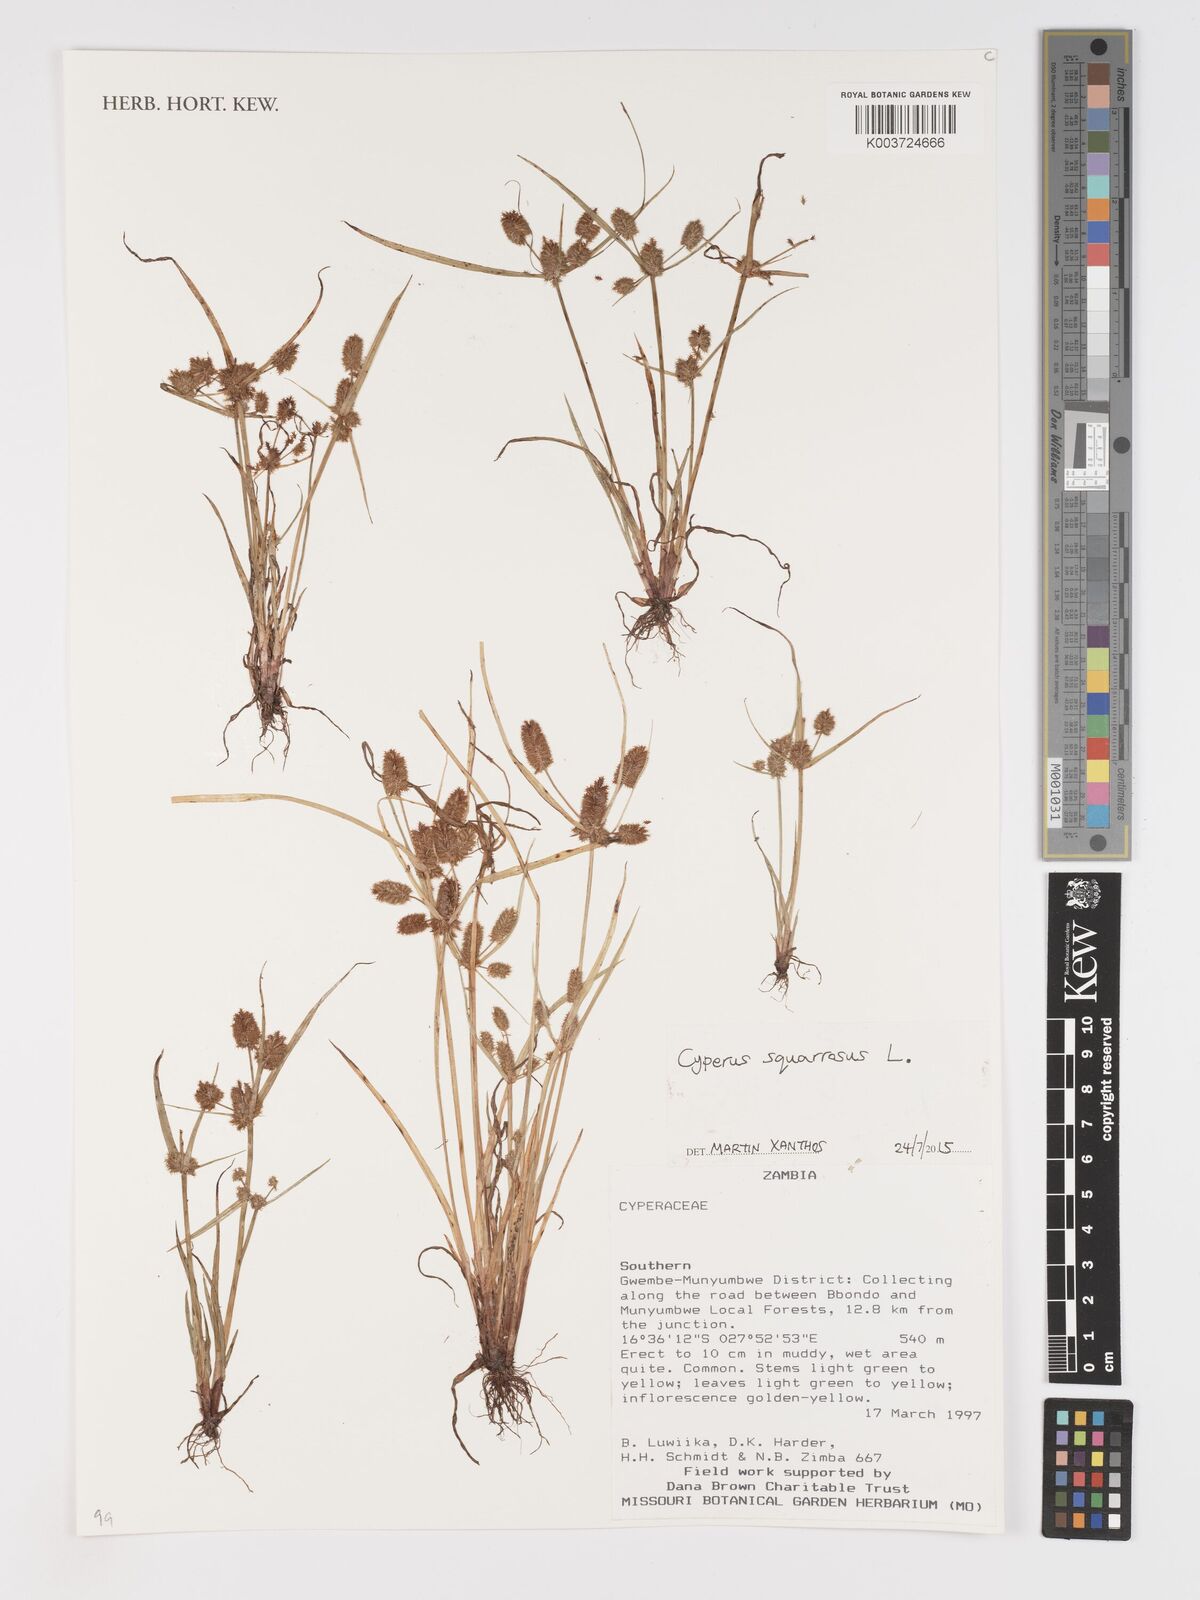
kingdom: Plantae
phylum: Tracheophyta
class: Liliopsida
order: Poales
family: Cyperaceae
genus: Cyperus
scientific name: Cyperus squarrosus
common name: Awned cyperus
